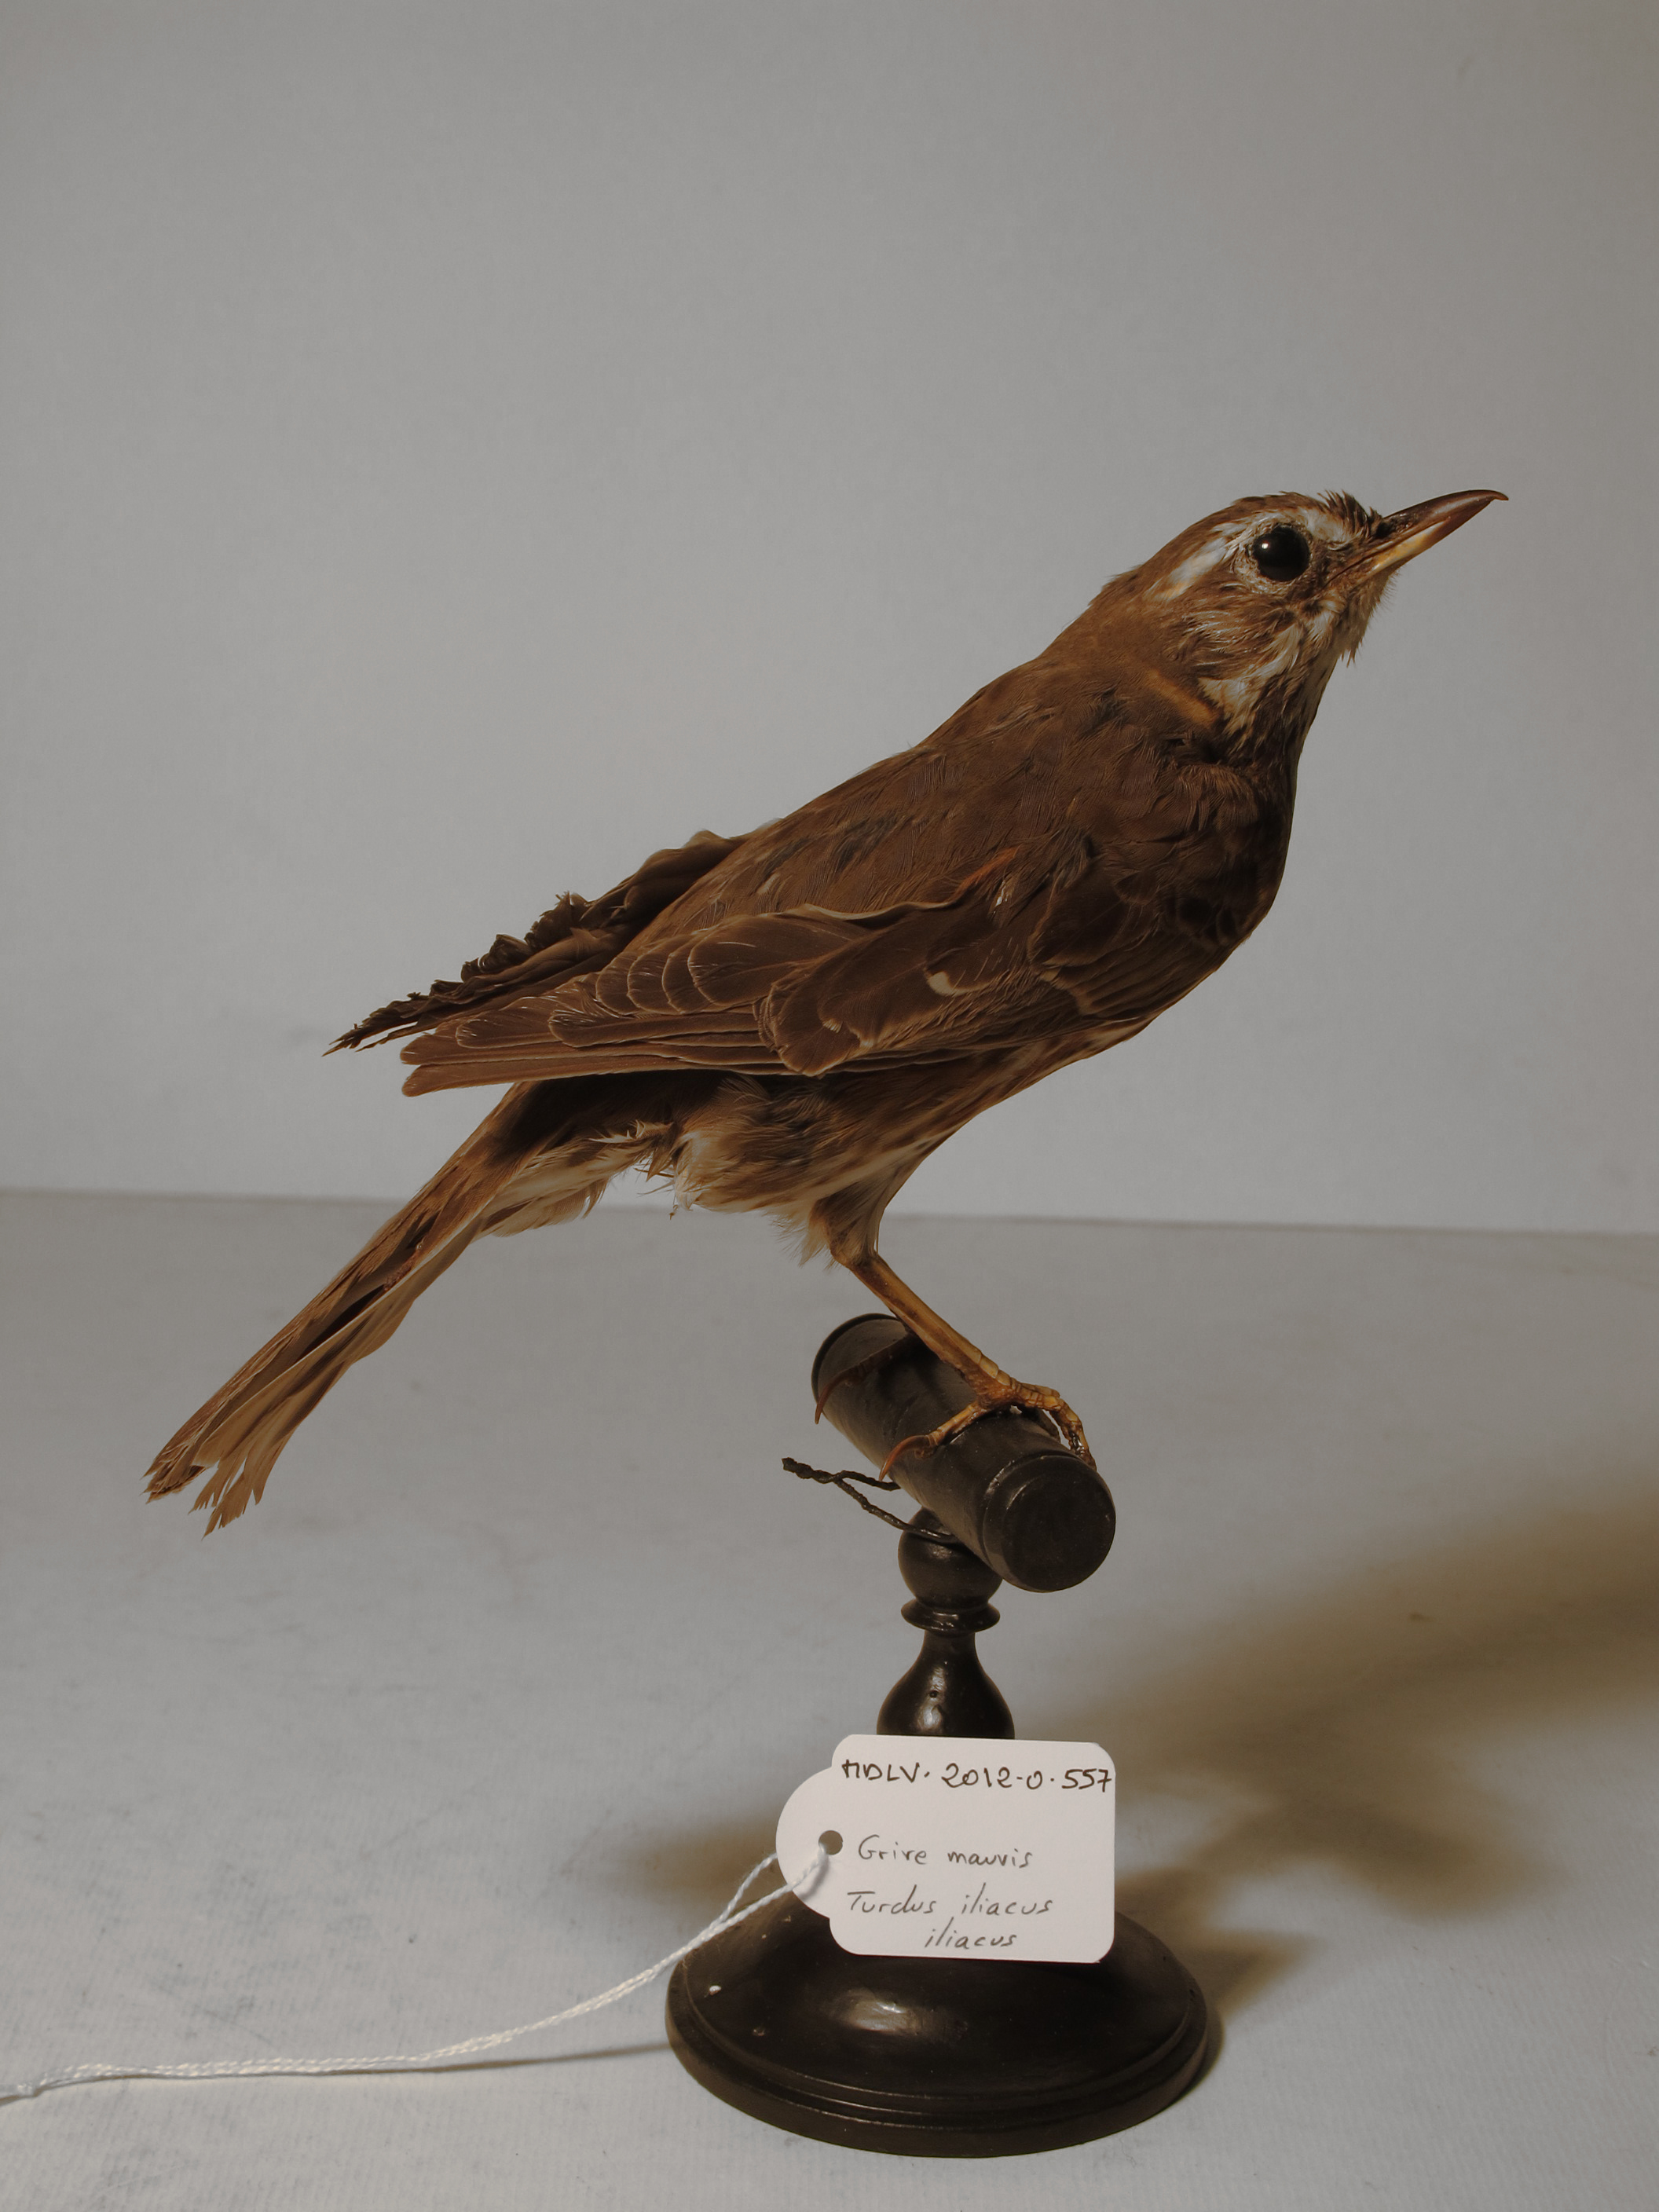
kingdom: Animalia
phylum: Chordata
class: Aves
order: Passeriformes
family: Turdidae
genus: Turdus
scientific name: Turdus iliacus
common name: Redwing
